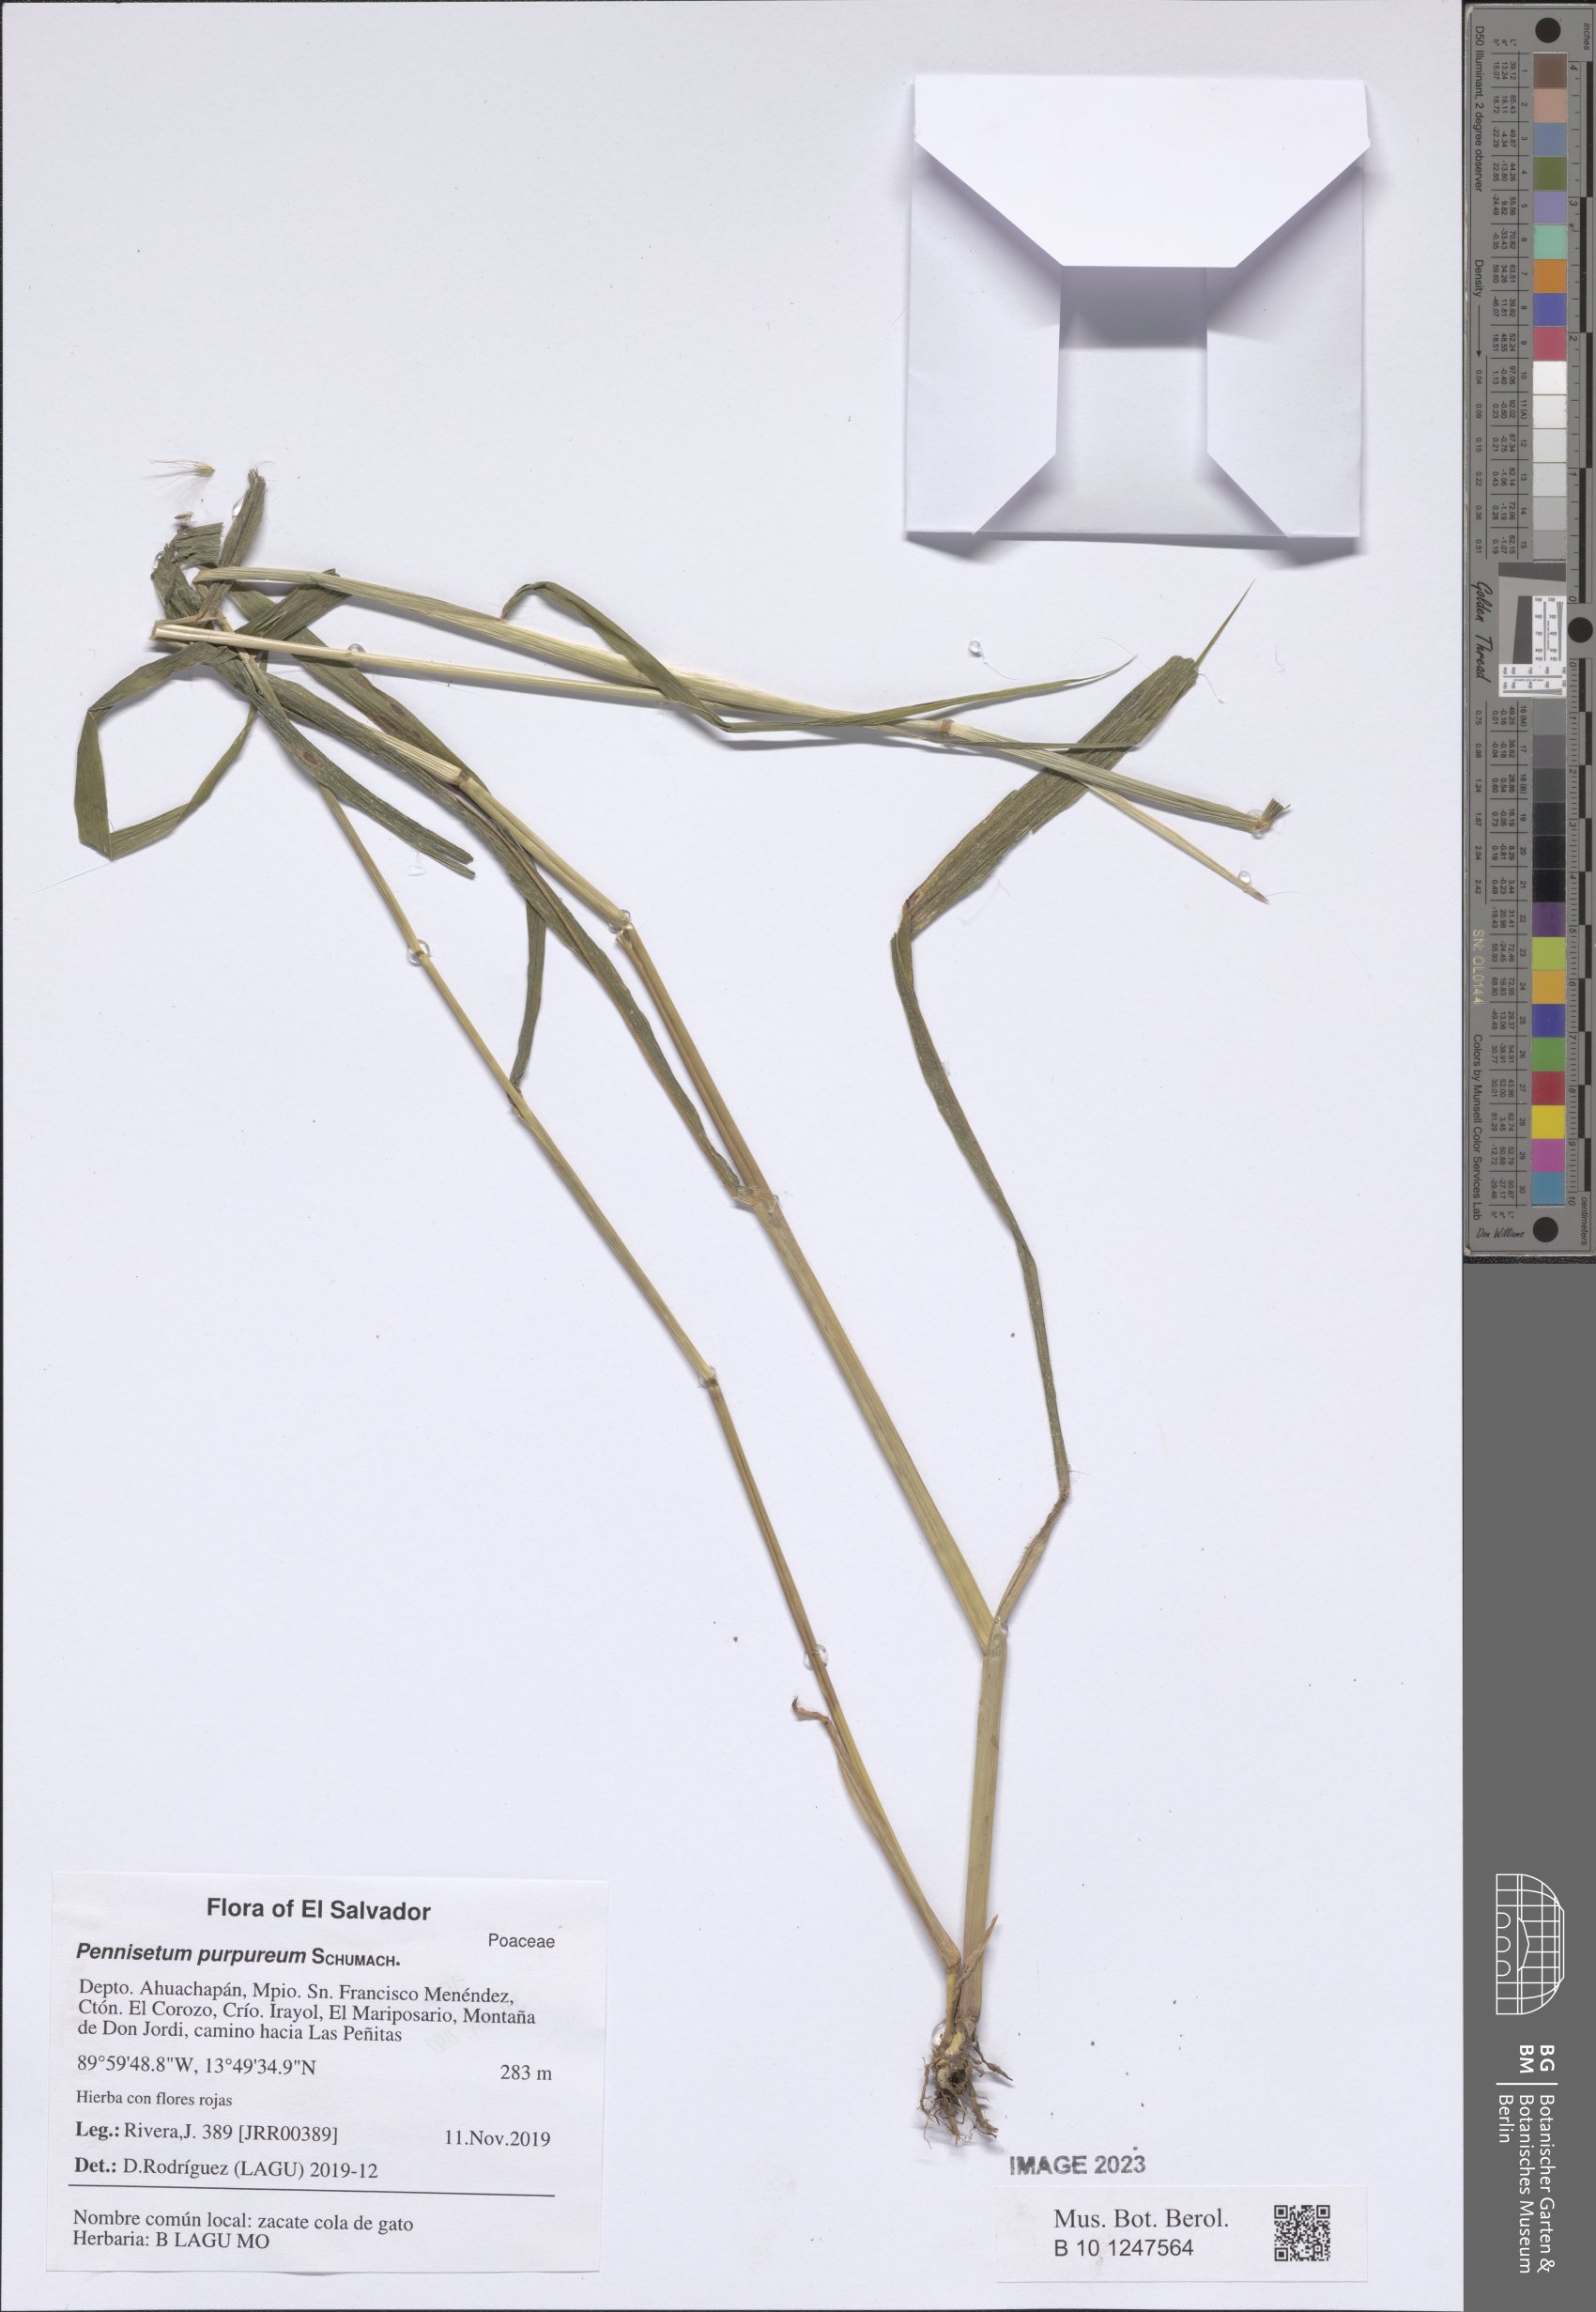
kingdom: Plantae
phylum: Tracheophyta
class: Liliopsida
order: Poales
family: Poaceae
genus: Cenchrus
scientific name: Cenchrus purpureus
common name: Elephant grass
